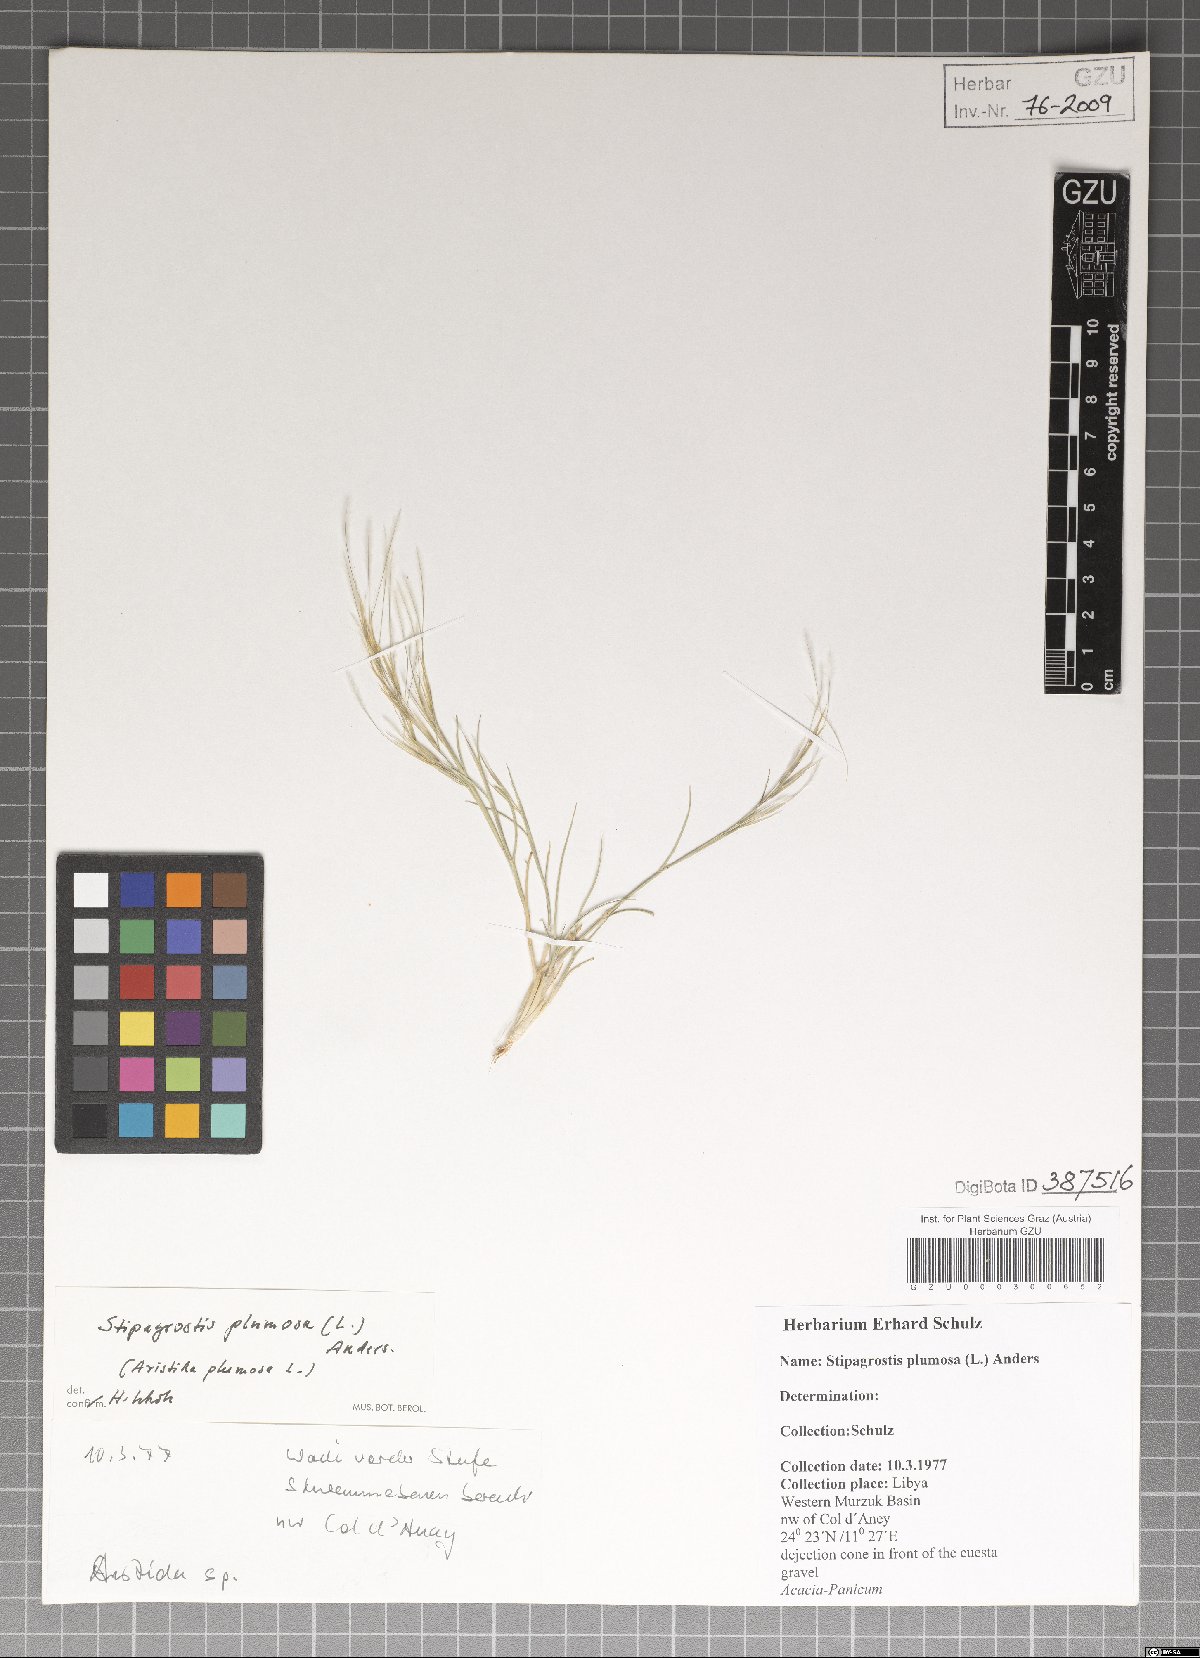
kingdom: Plantae
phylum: Tracheophyta
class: Liliopsida
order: Poales
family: Poaceae
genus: Stipagrostis
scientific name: Stipagrostis plumosa
